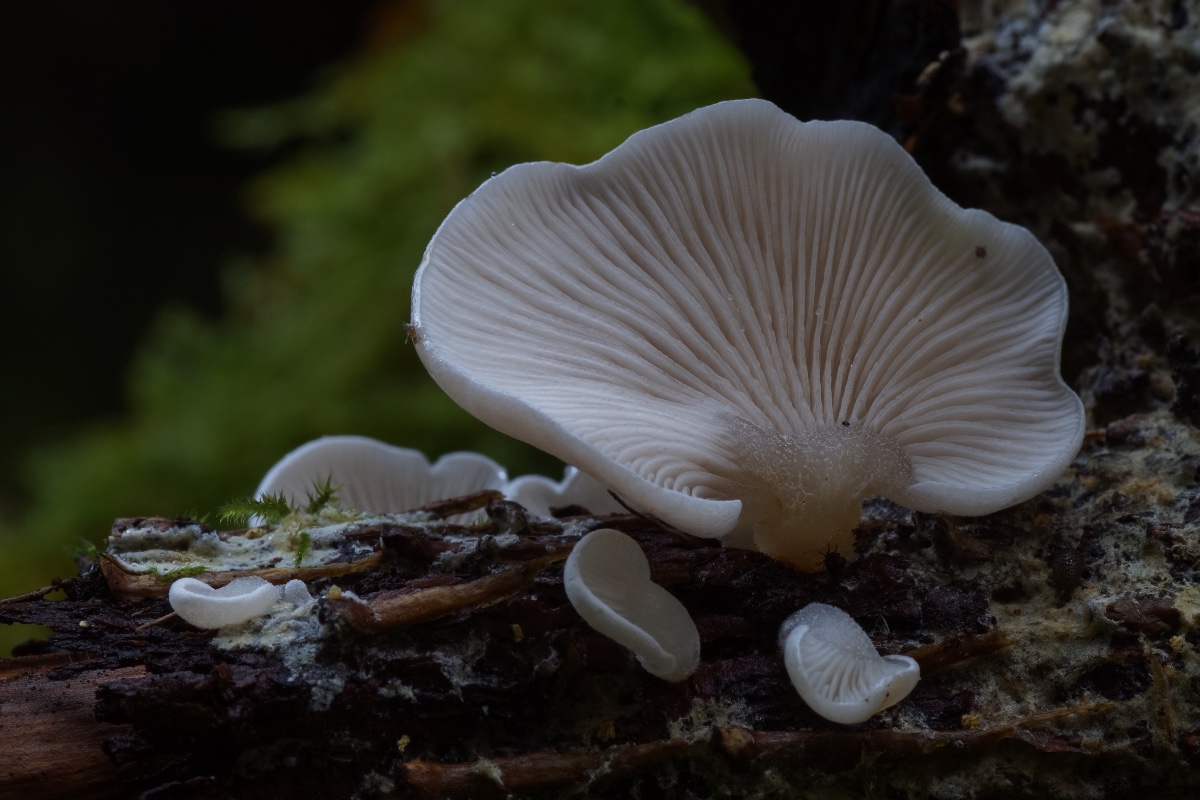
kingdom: Fungi
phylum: Basidiomycota
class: Agaricomycetes
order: Agaricales
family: Mycenaceae
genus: Panellus
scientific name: Panellus mitis
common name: mild epaulethat
